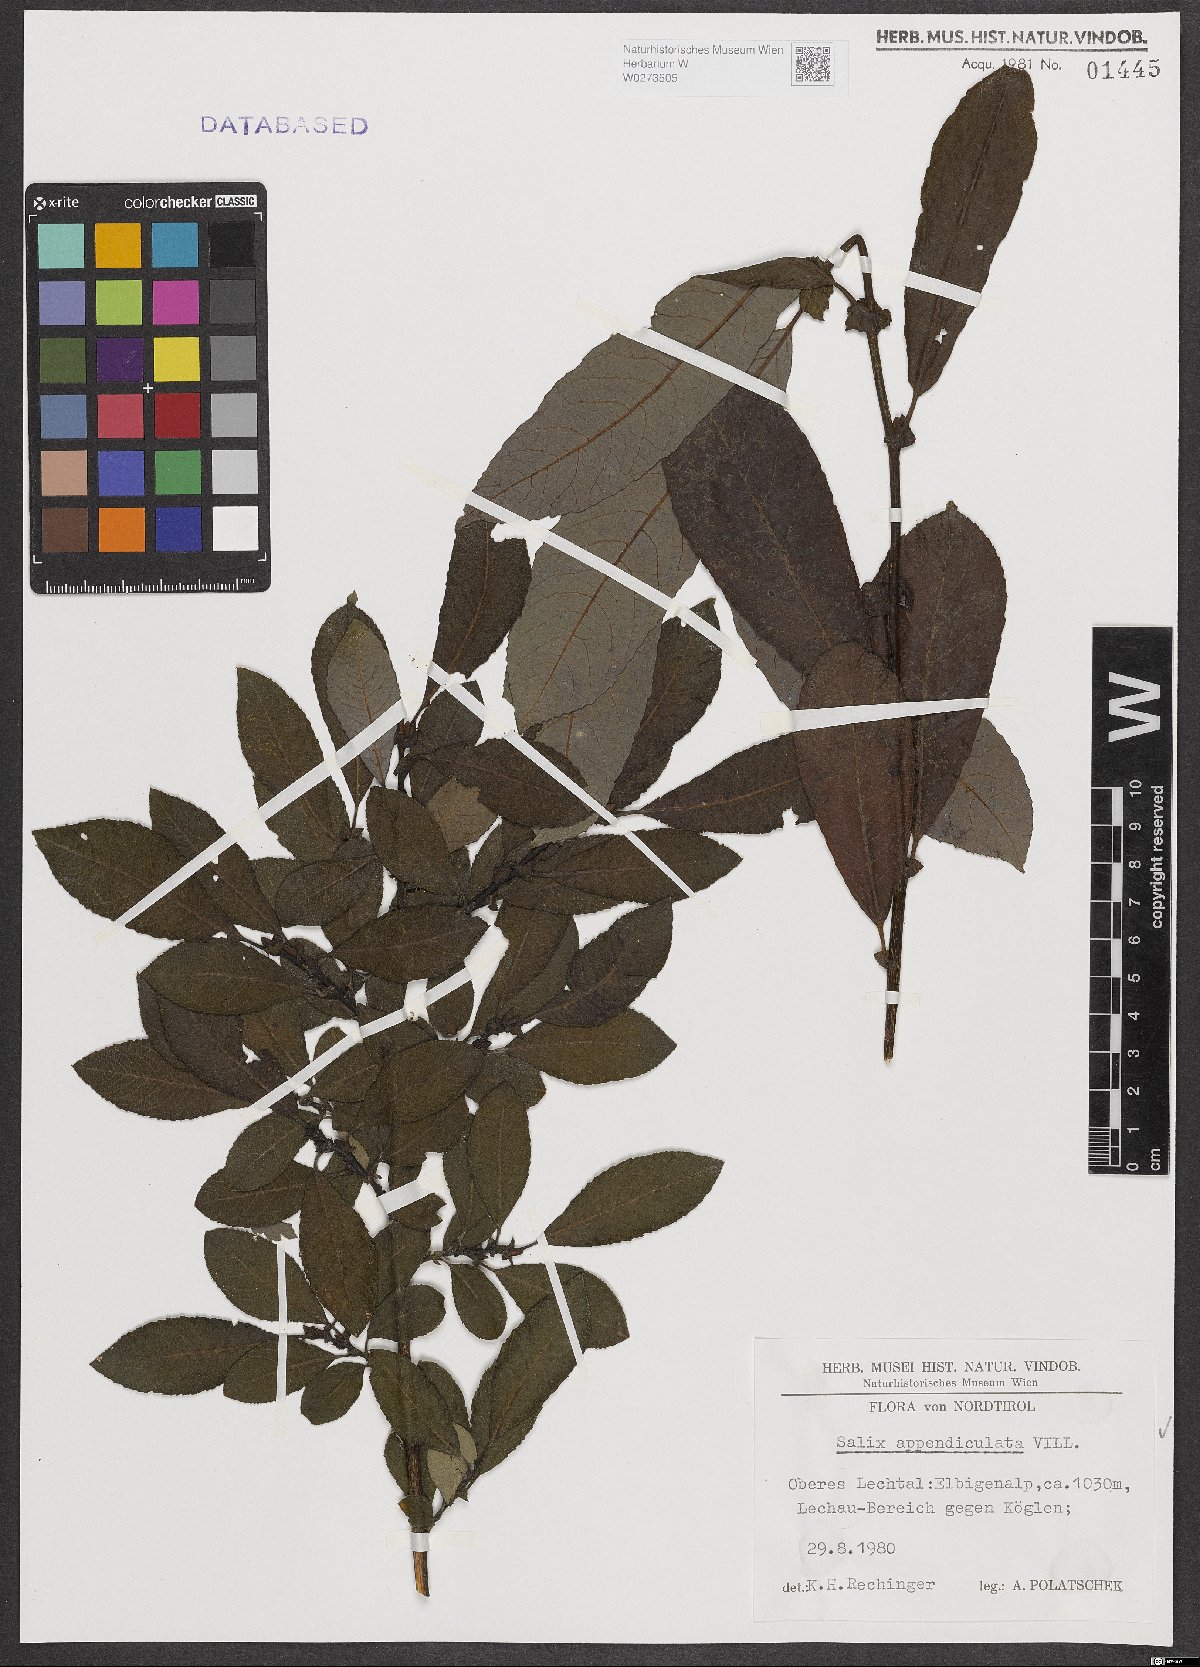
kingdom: Plantae
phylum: Tracheophyta
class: Magnoliopsida
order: Malpighiales
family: Salicaceae
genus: Salix
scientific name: Salix appendiculata
